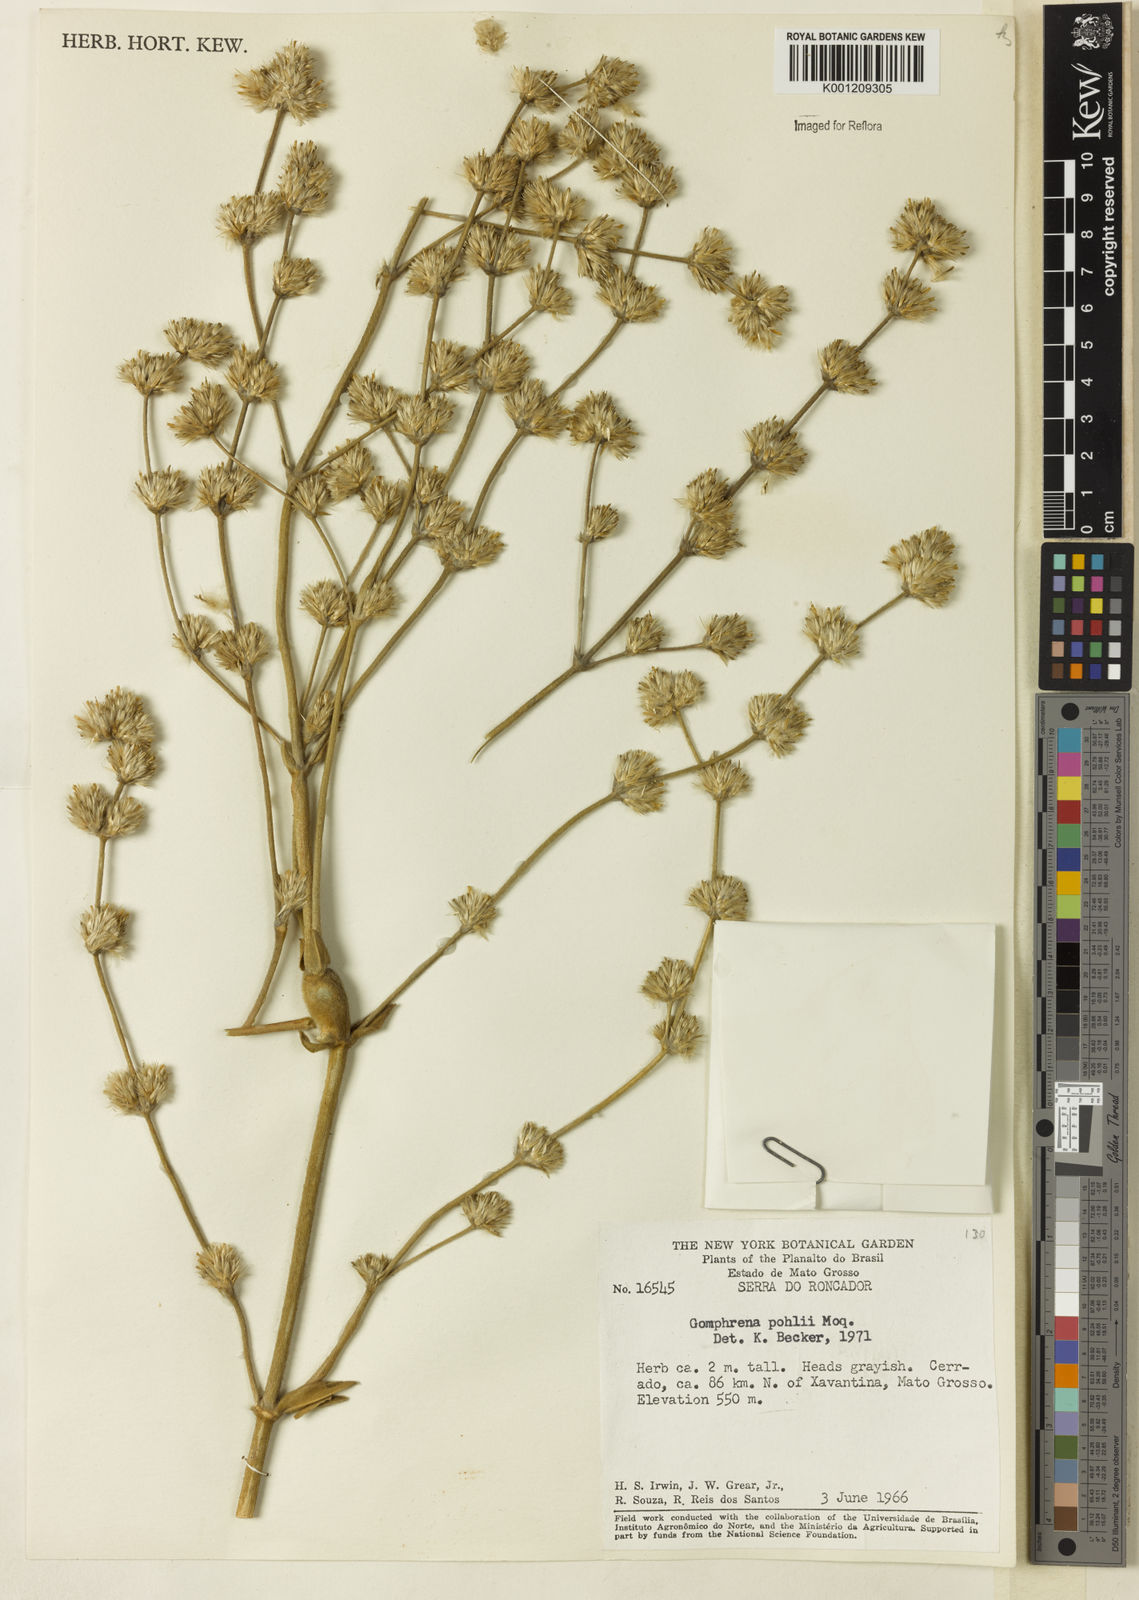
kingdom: Plantae
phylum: Tracheophyta
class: Magnoliopsida
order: Caryophyllales
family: Amaranthaceae
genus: Gomphrena
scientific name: Gomphrena pohlii
